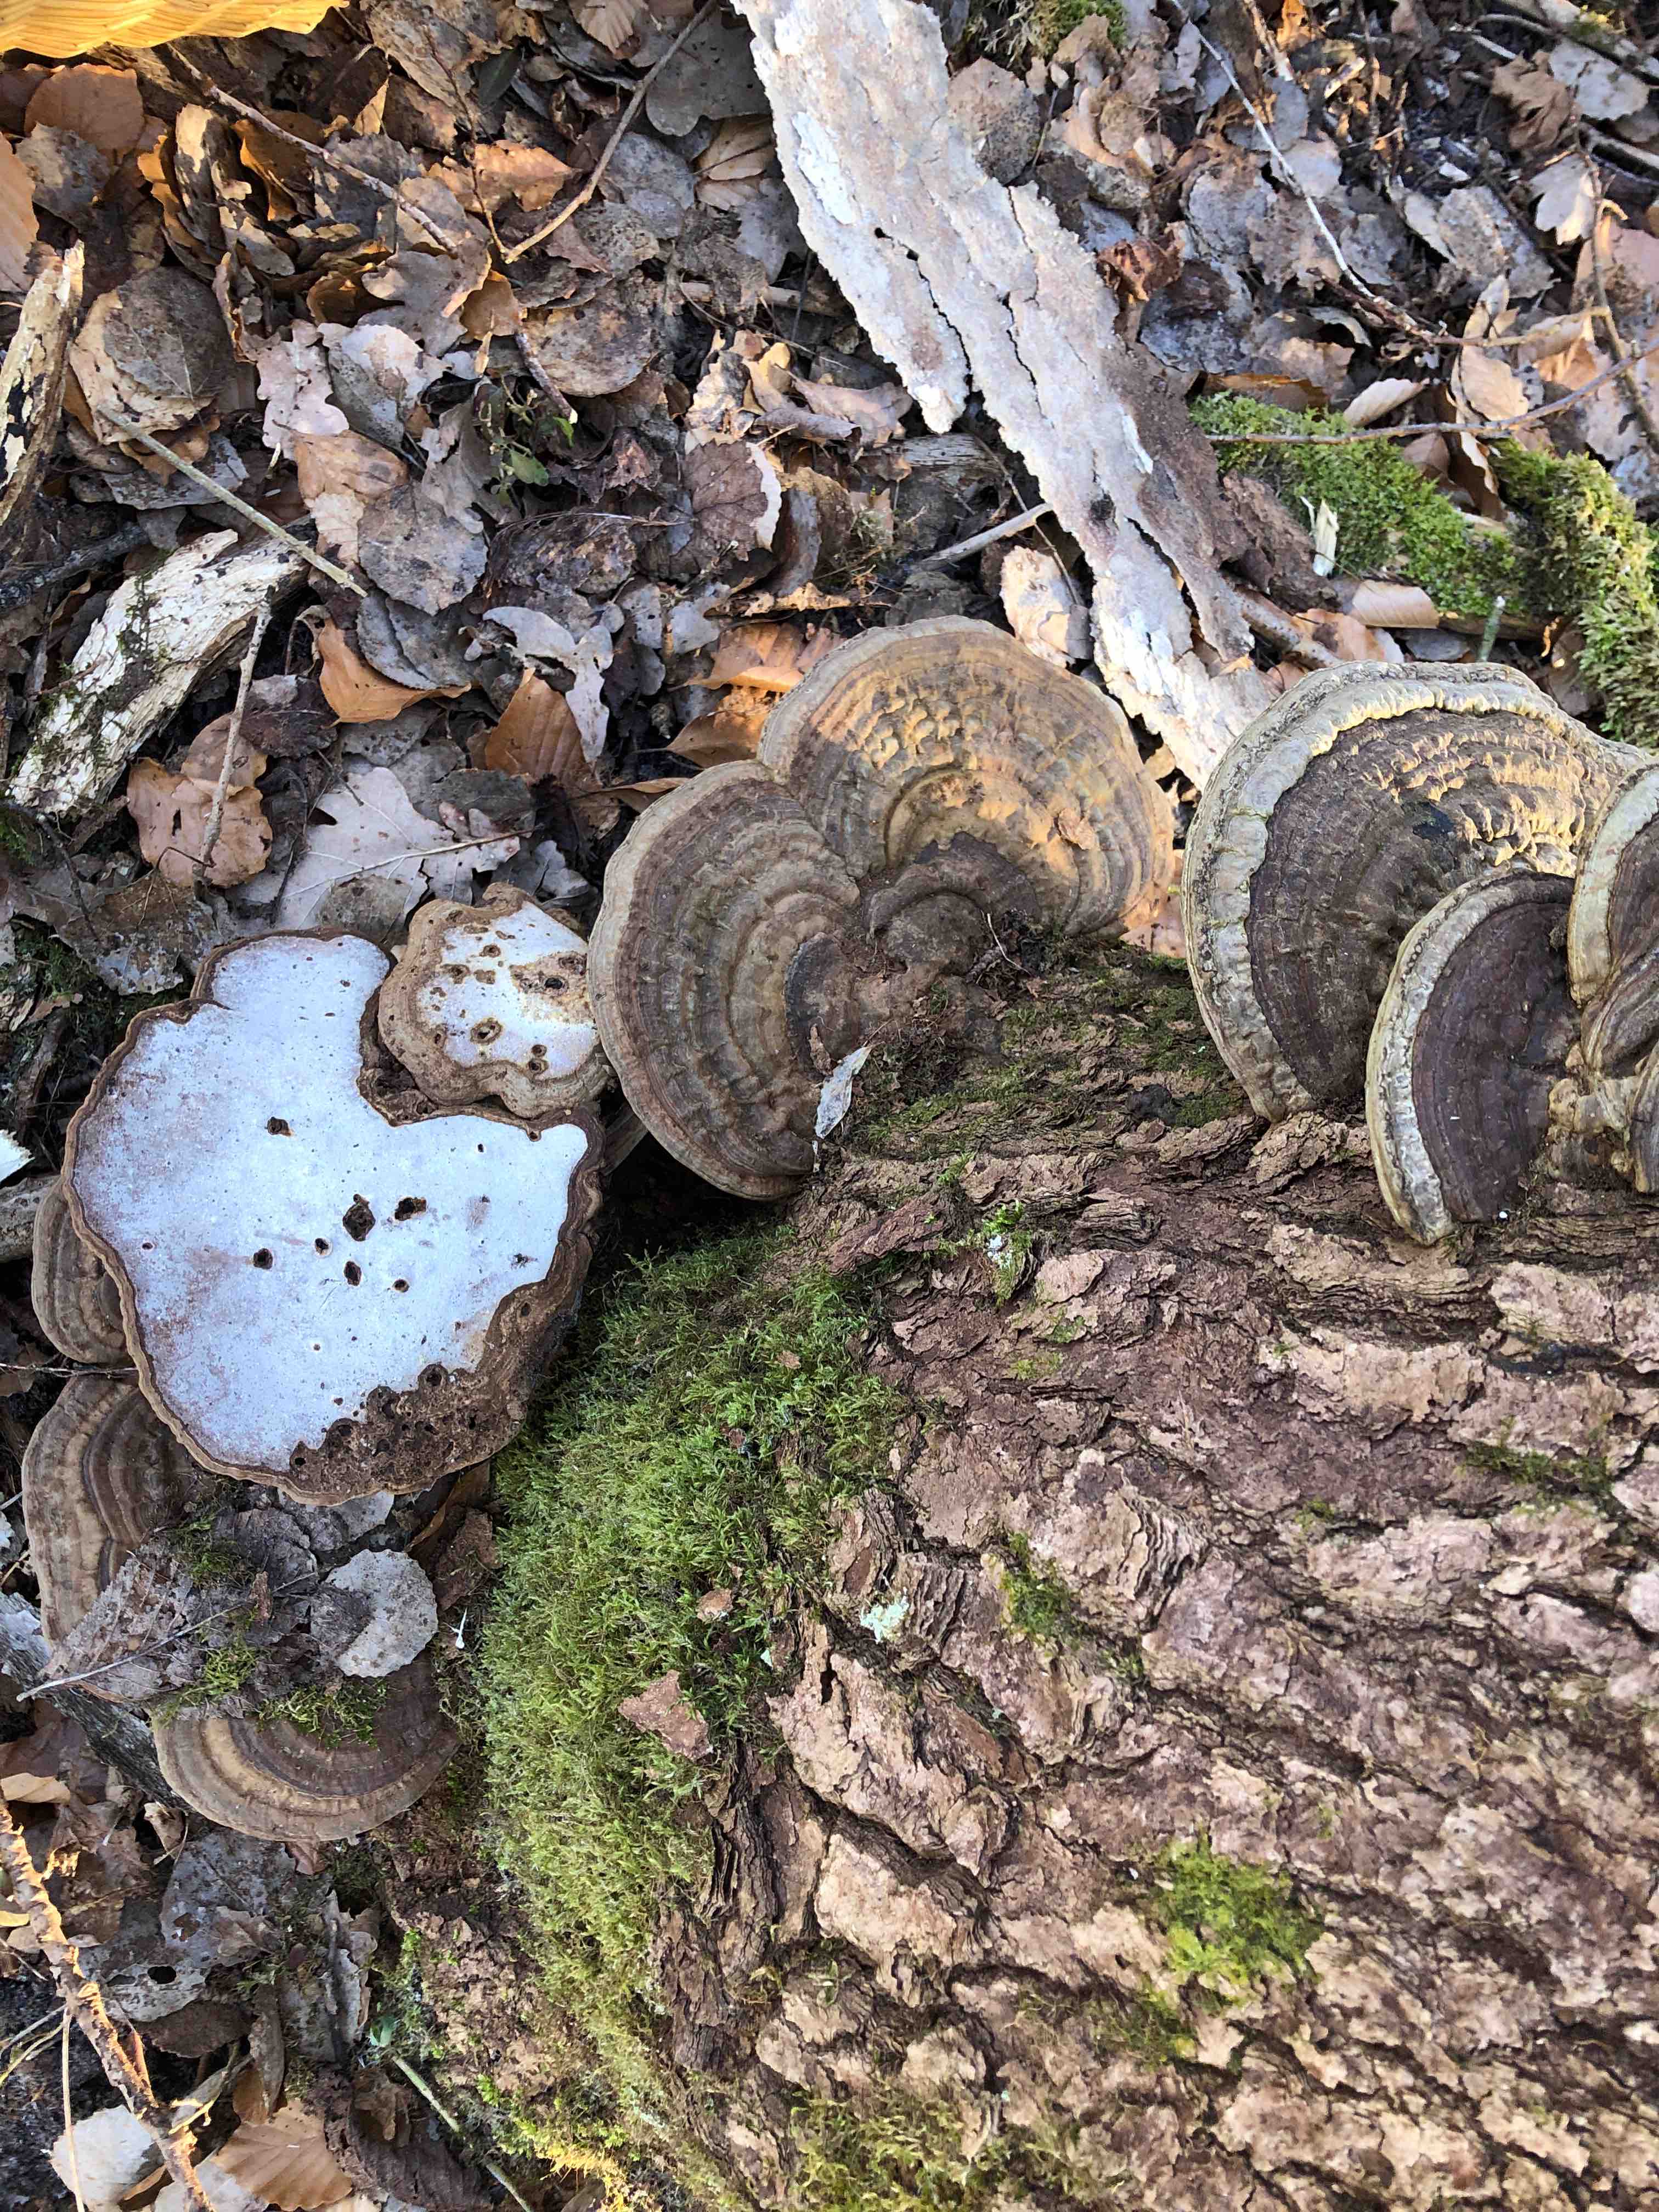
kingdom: Fungi
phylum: Basidiomycota
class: Agaricomycetes
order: Polyporales
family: Polyporaceae
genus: Ganoderma
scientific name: Ganoderma applanatum
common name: flad lakporesvamp
